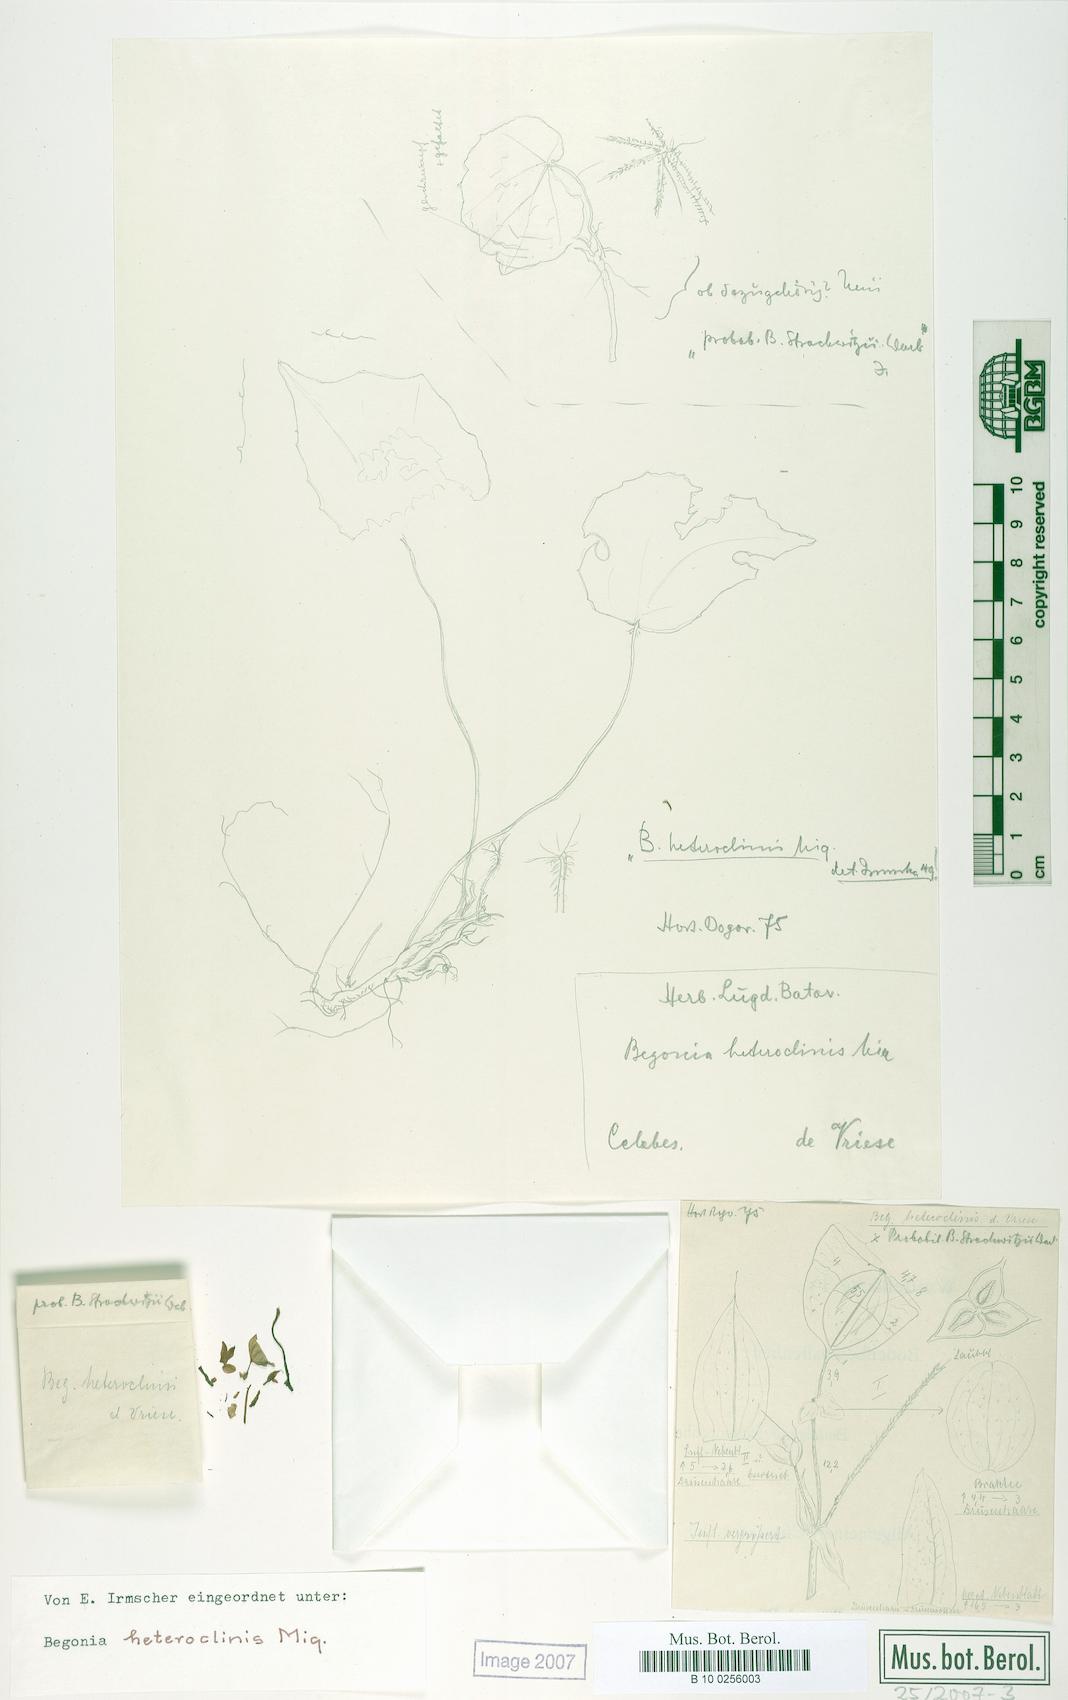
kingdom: Plantae
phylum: Tracheophyta
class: Magnoliopsida
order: Cucurbitales
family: Begoniaceae
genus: Begonia
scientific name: Begonia heteroclinis
